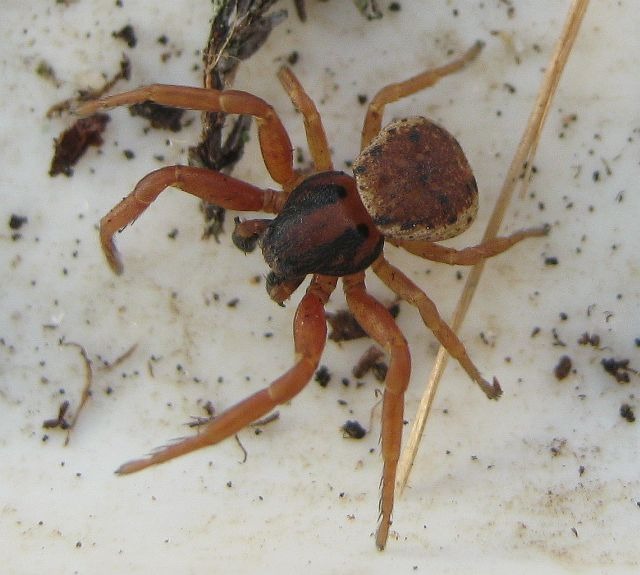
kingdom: Animalia
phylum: Arthropoda
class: Arachnida
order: Araneae
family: Thomisidae
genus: Ozyptila
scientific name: Ozyptila atomaria
